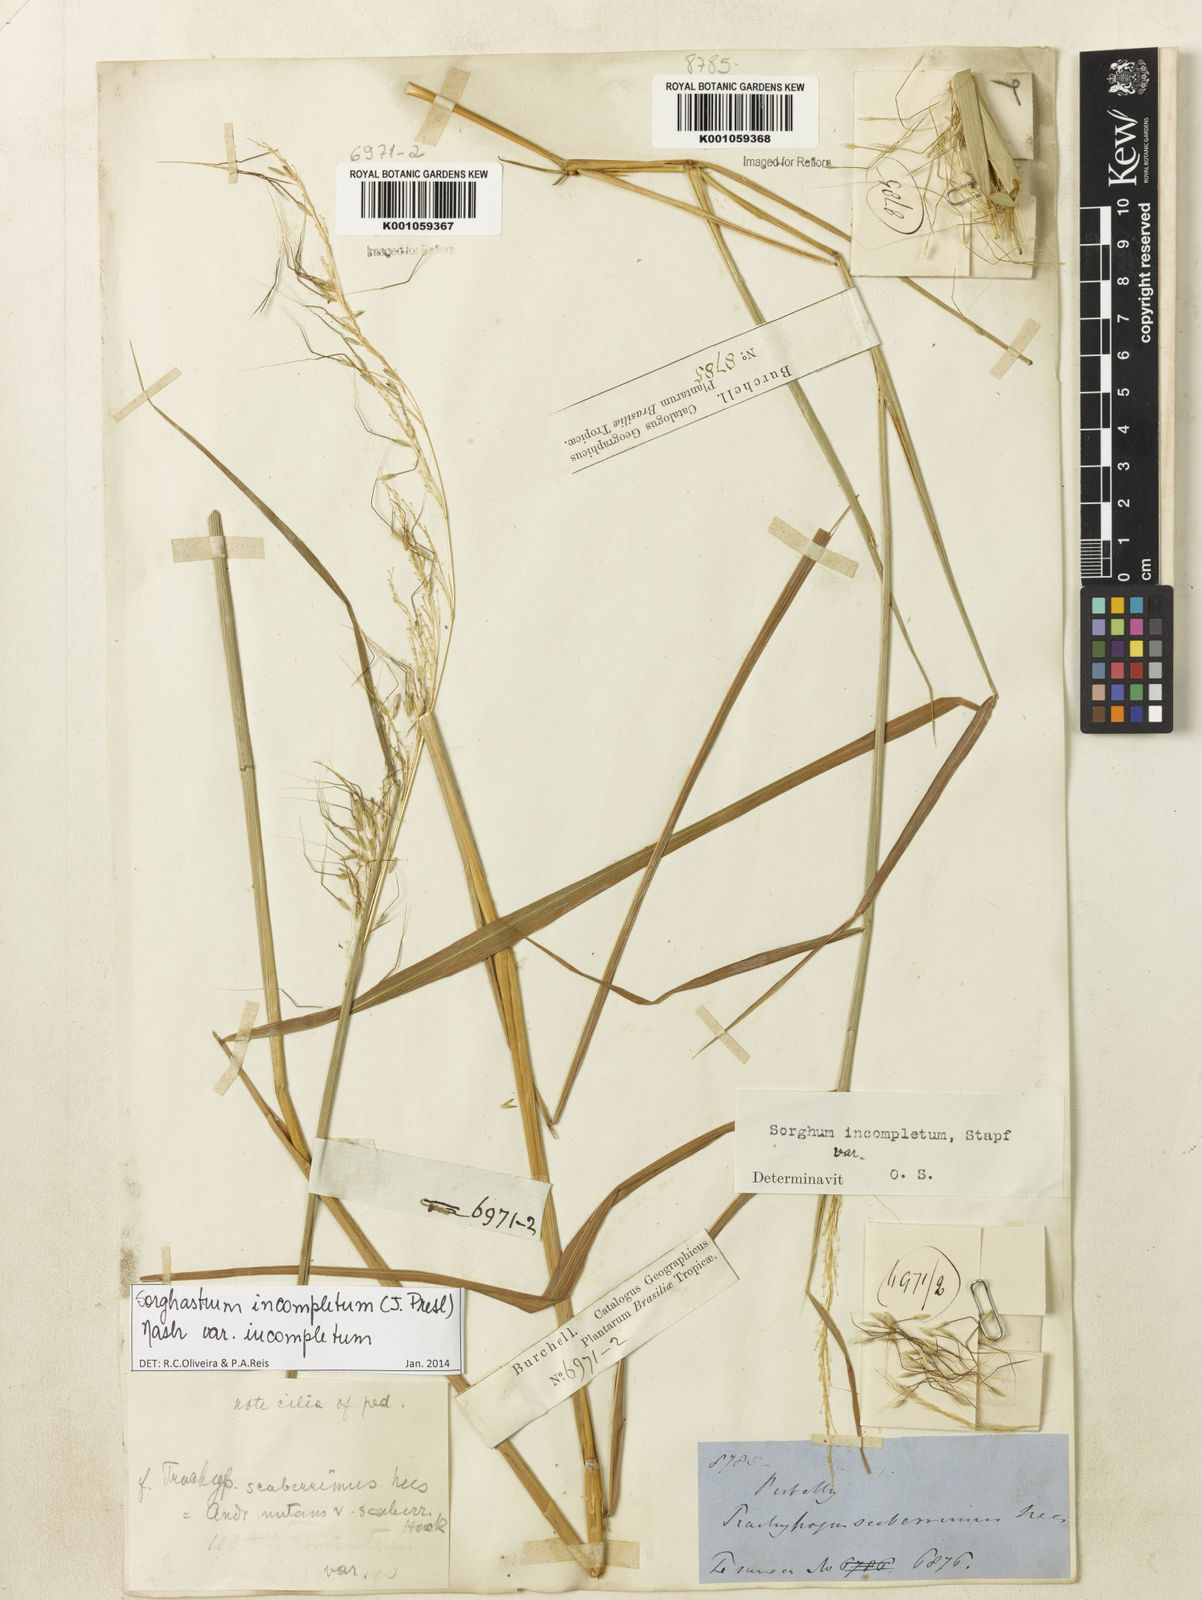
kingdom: Plantae
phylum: Tracheophyta
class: Liliopsida
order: Poales
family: Poaceae
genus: Sorghastrum
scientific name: Sorghastrum incompletum
